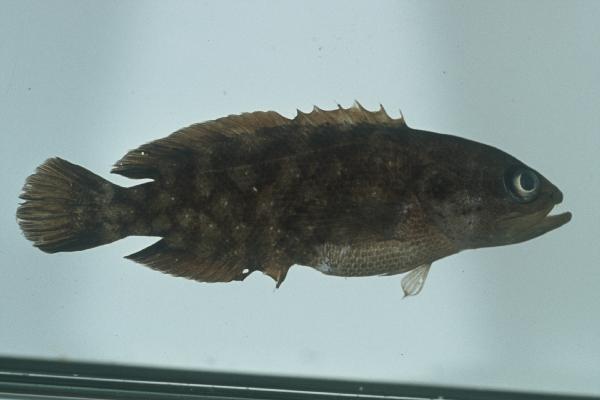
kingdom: Animalia
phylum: Chordata
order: Perciformes
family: Serranidae
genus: Pseudogramma
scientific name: Pseudogramma polyacantha
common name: Bold-spot soapfish
